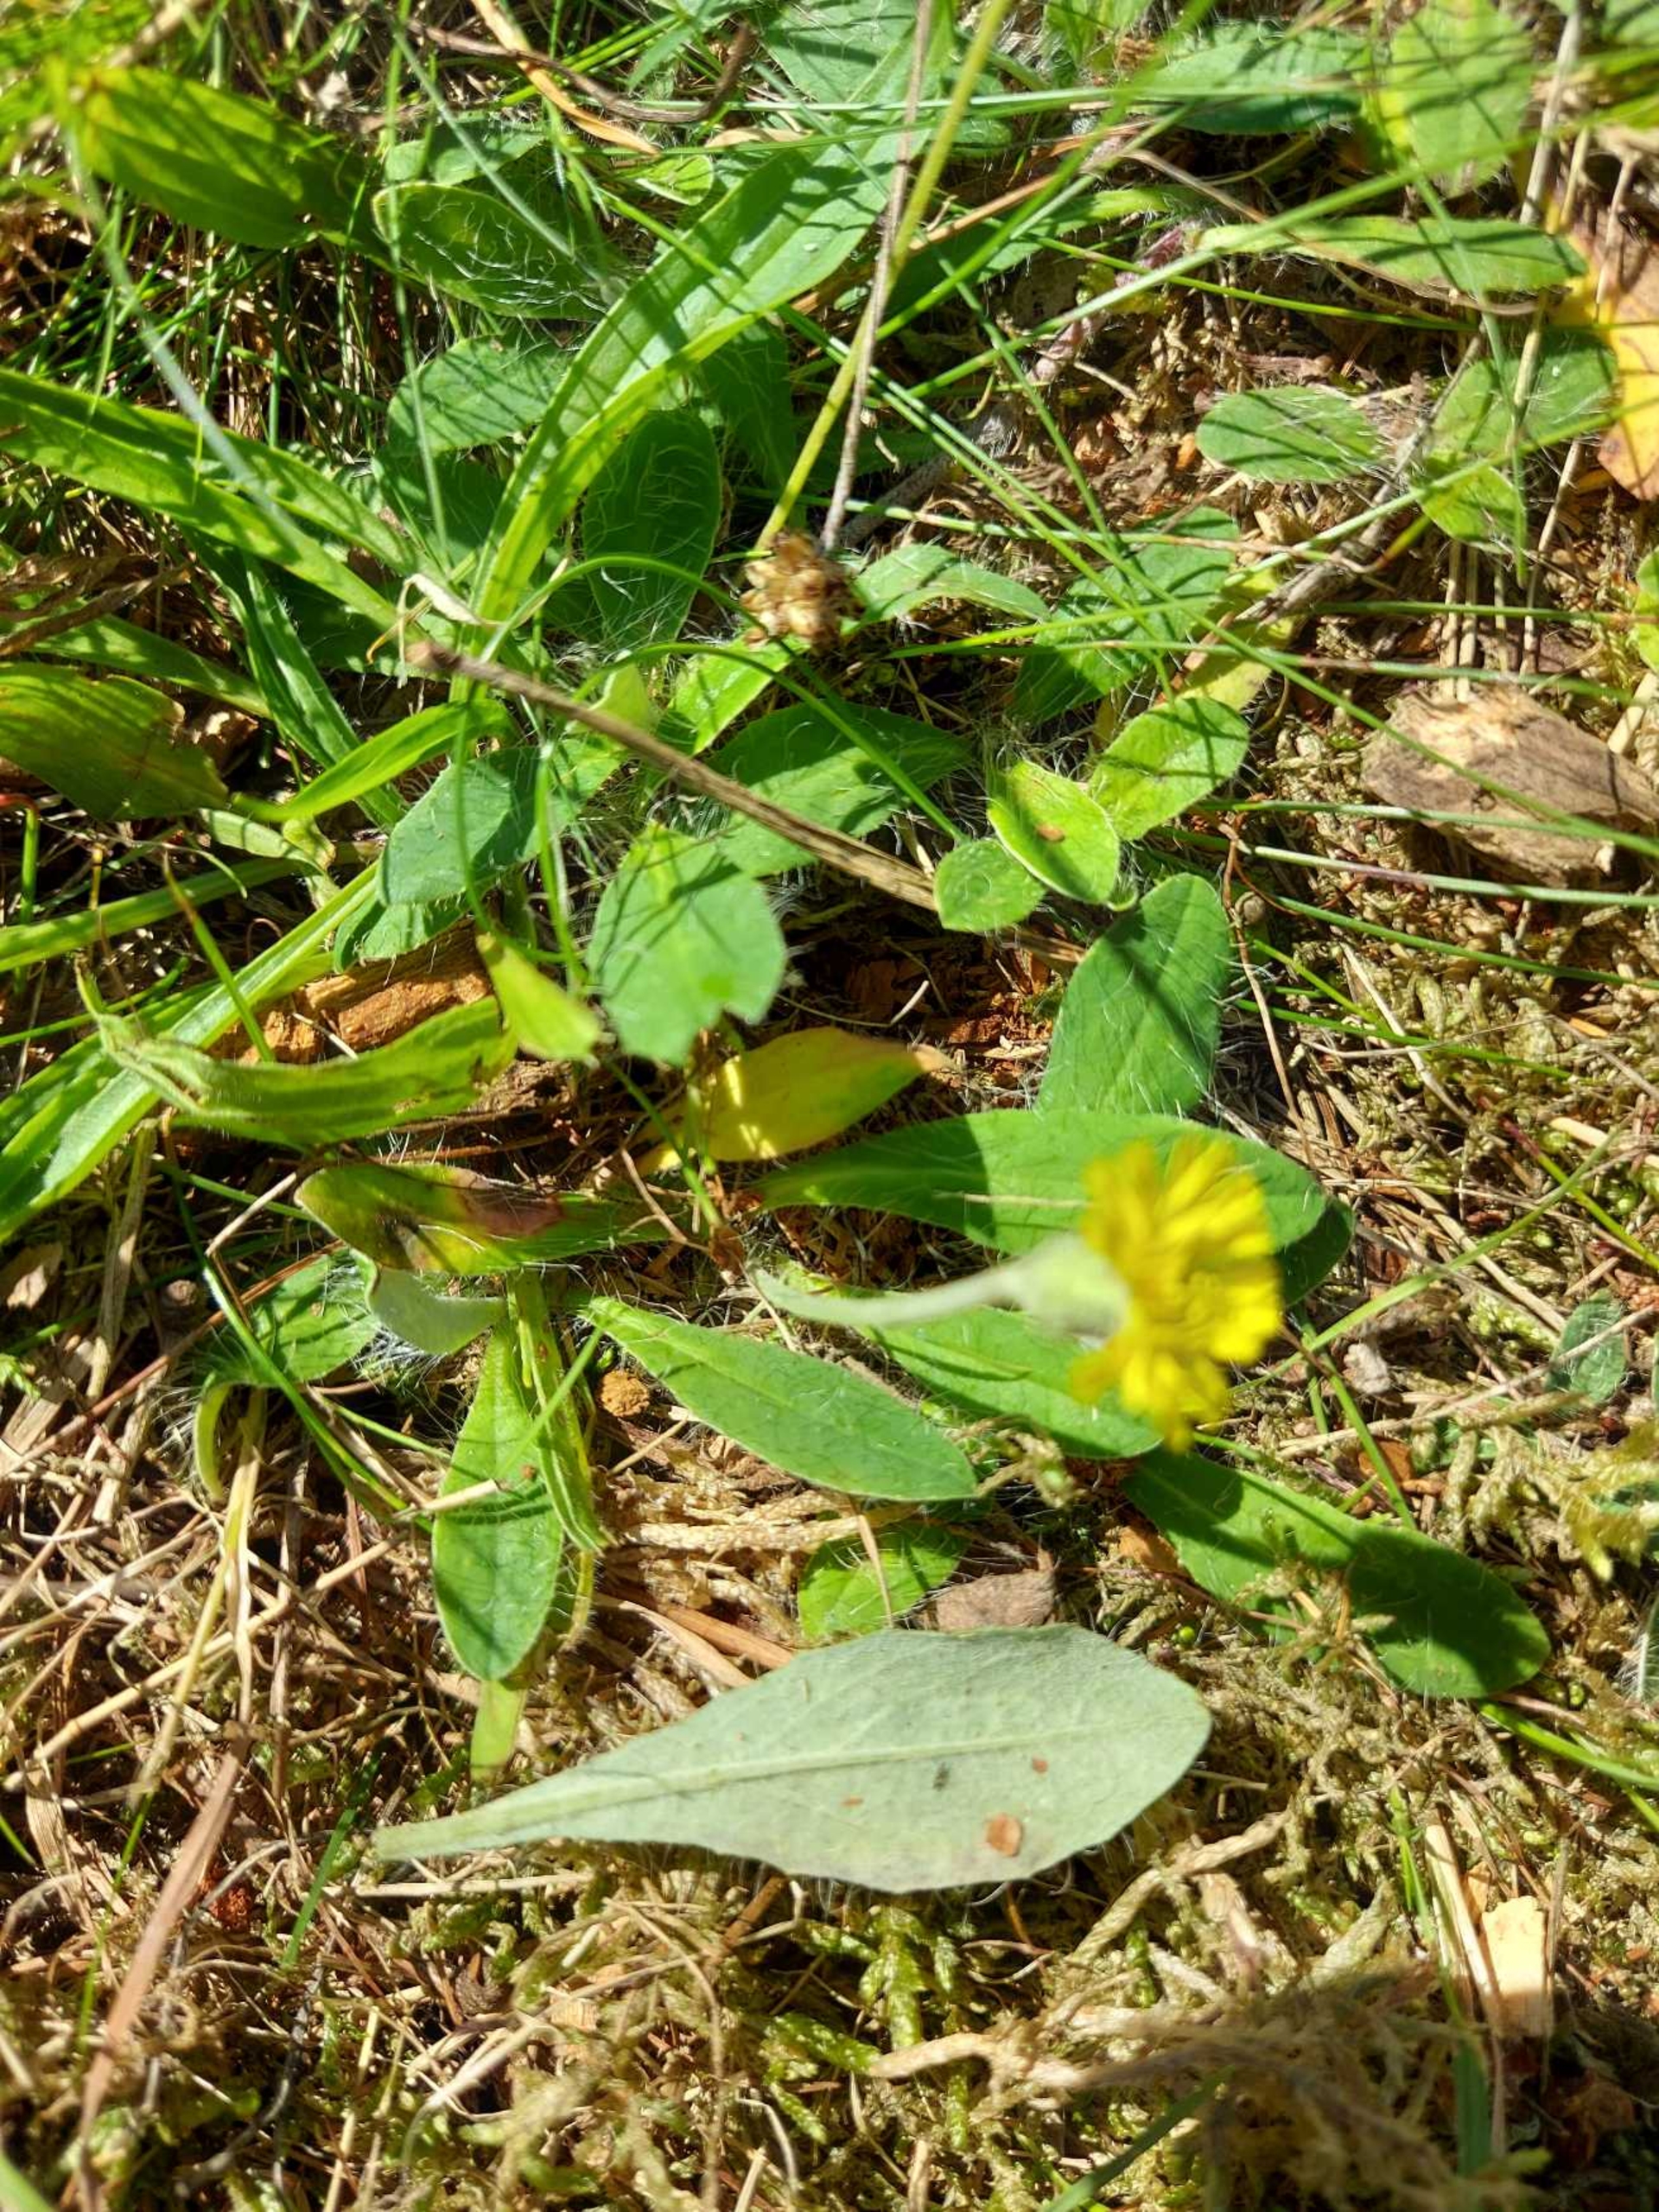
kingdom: Plantae
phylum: Tracheophyta
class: Magnoliopsida
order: Asterales
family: Asteraceae
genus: Pilosella
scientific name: Pilosella officinarum
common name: Håret høgeurt
